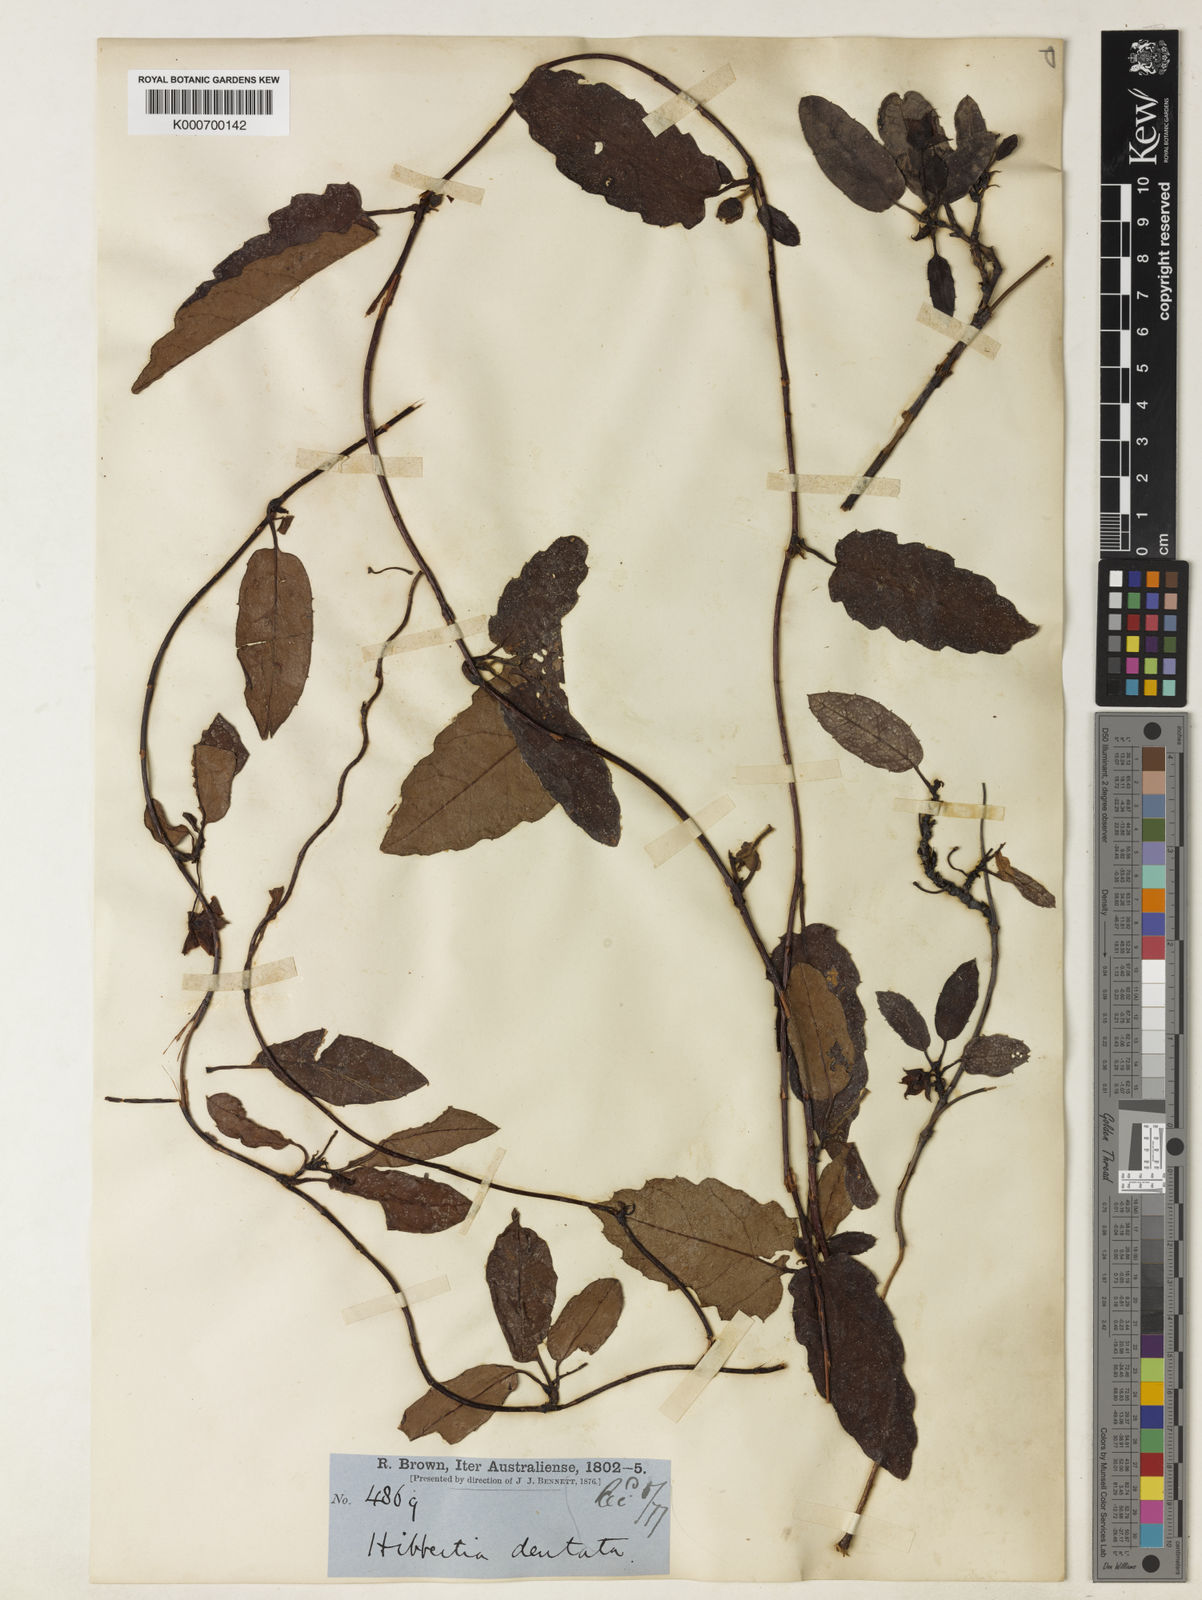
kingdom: Plantae
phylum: Tracheophyta
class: Magnoliopsida
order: Dilleniales
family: Dilleniaceae
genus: Hibbertia
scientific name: Hibbertia
